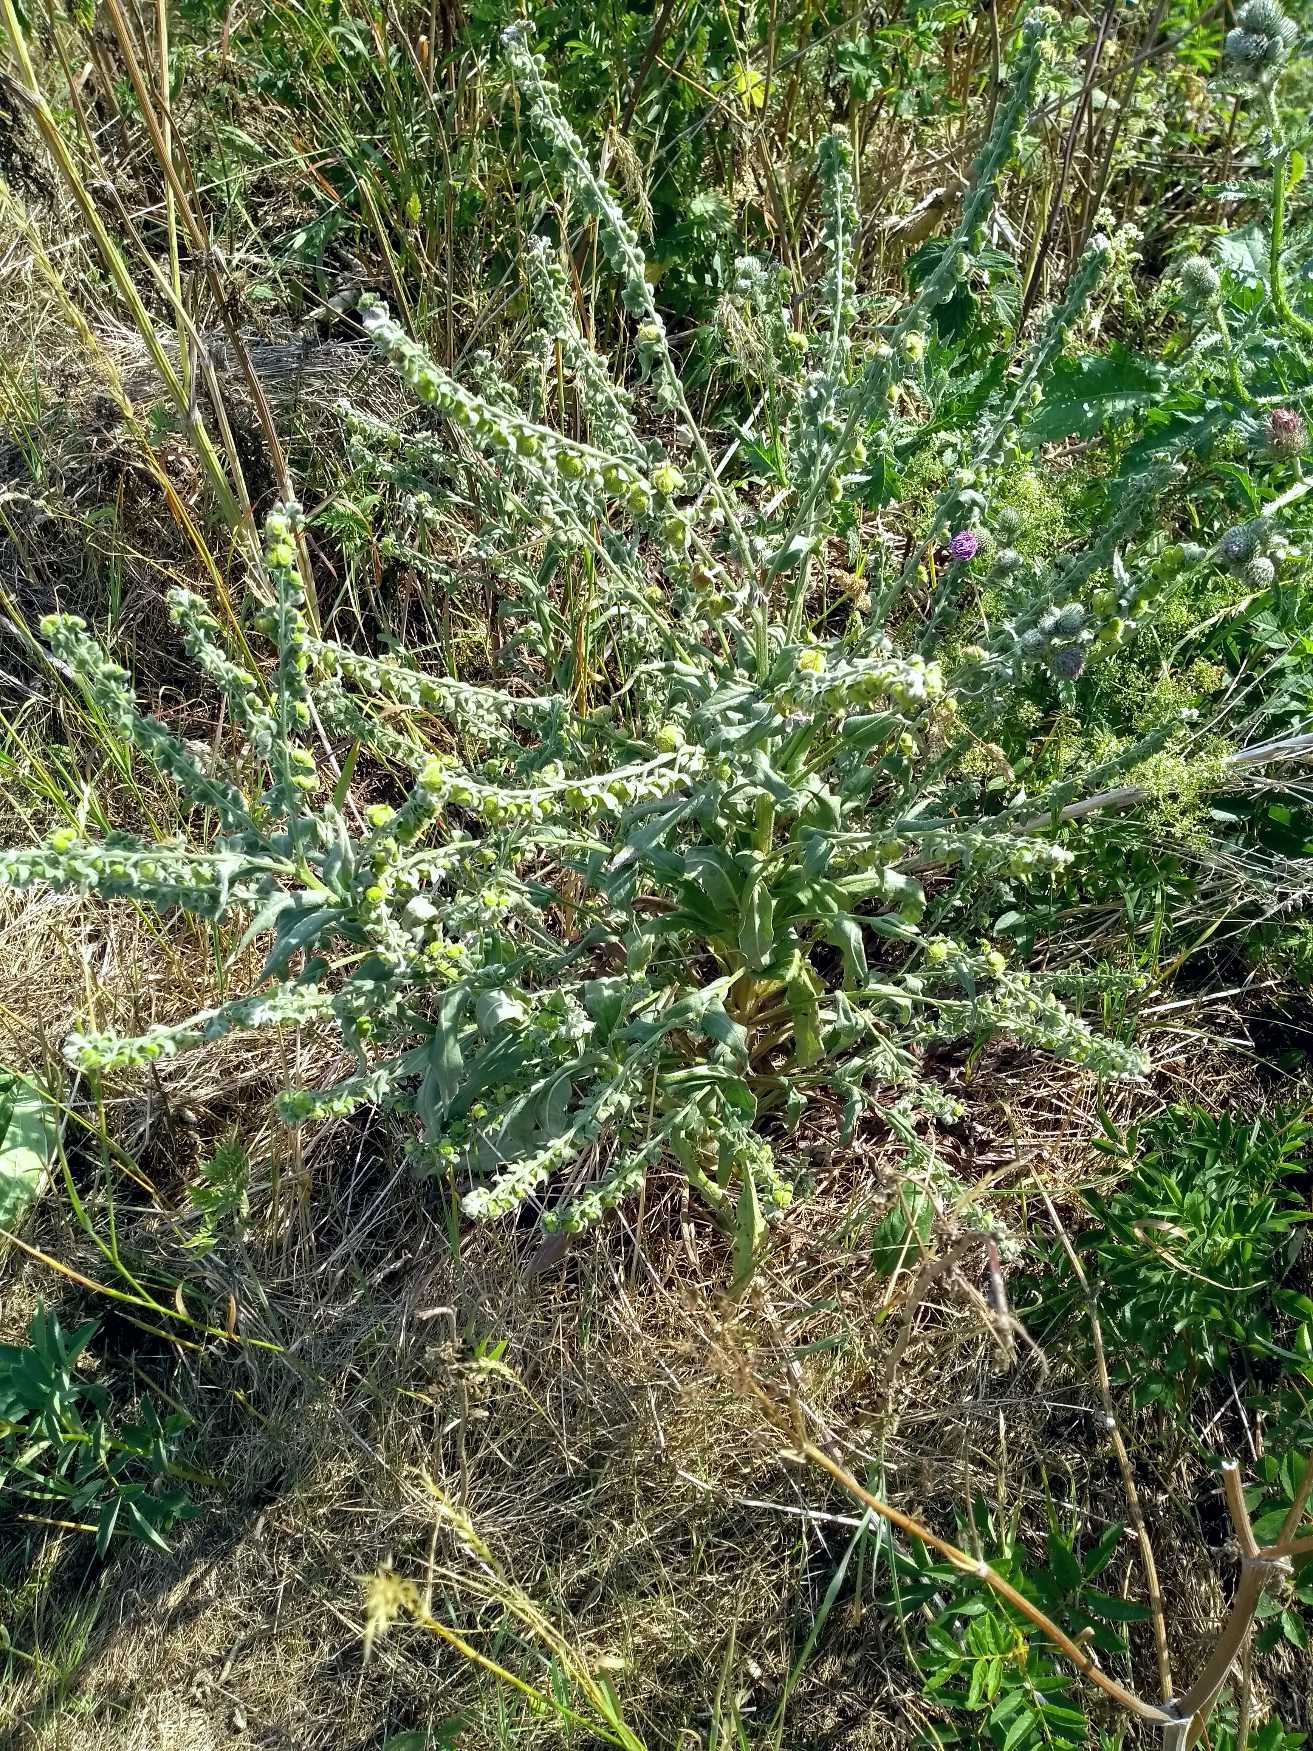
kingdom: Plantae
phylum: Tracheophyta
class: Magnoliopsida
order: Boraginales
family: Boraginaceae
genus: Cynoglossum
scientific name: Cynoglossum officinale
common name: Hundetunge
